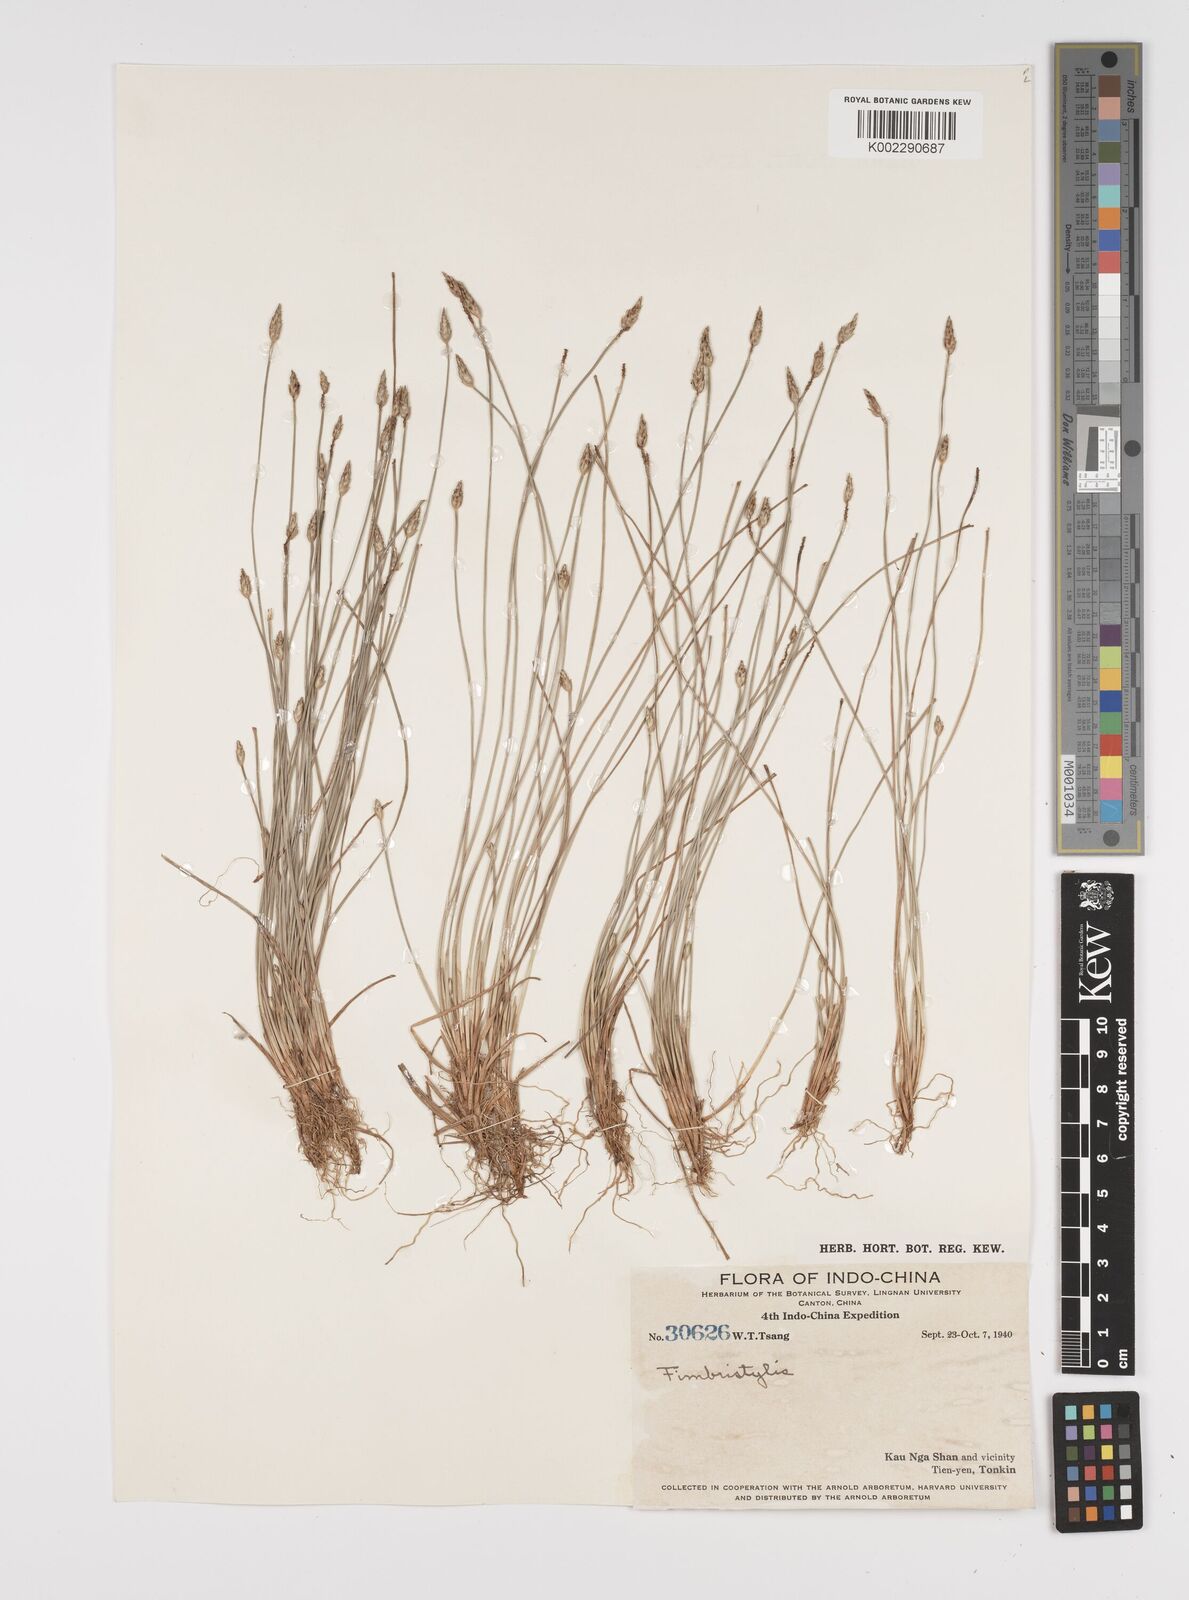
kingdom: Plantae
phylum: Tracheophyta
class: Liliopsida
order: Poales
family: Cyperaceae
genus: Fimbristylis
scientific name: Fimbristylis
